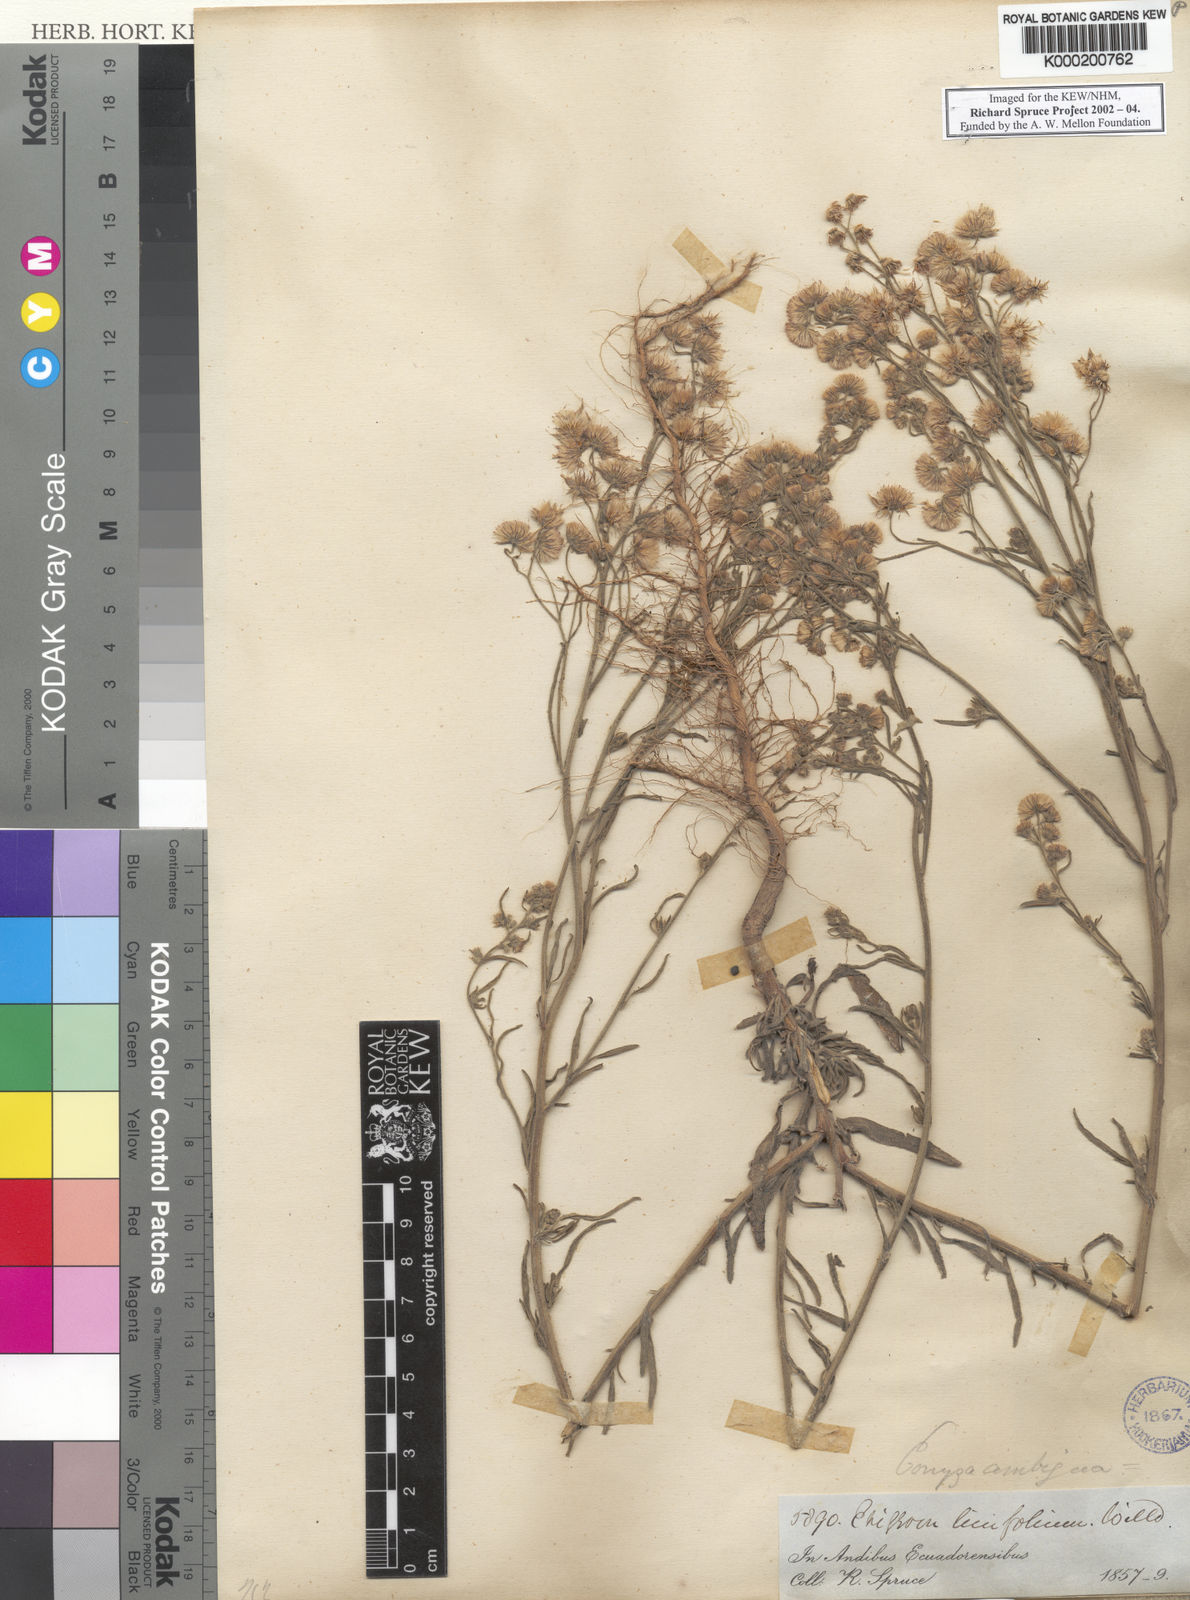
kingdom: Plantae
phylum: Tracheophyta
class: Magnoliopsida
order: Asterales
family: Asteraceae
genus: Erigeron
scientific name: Erigeron
